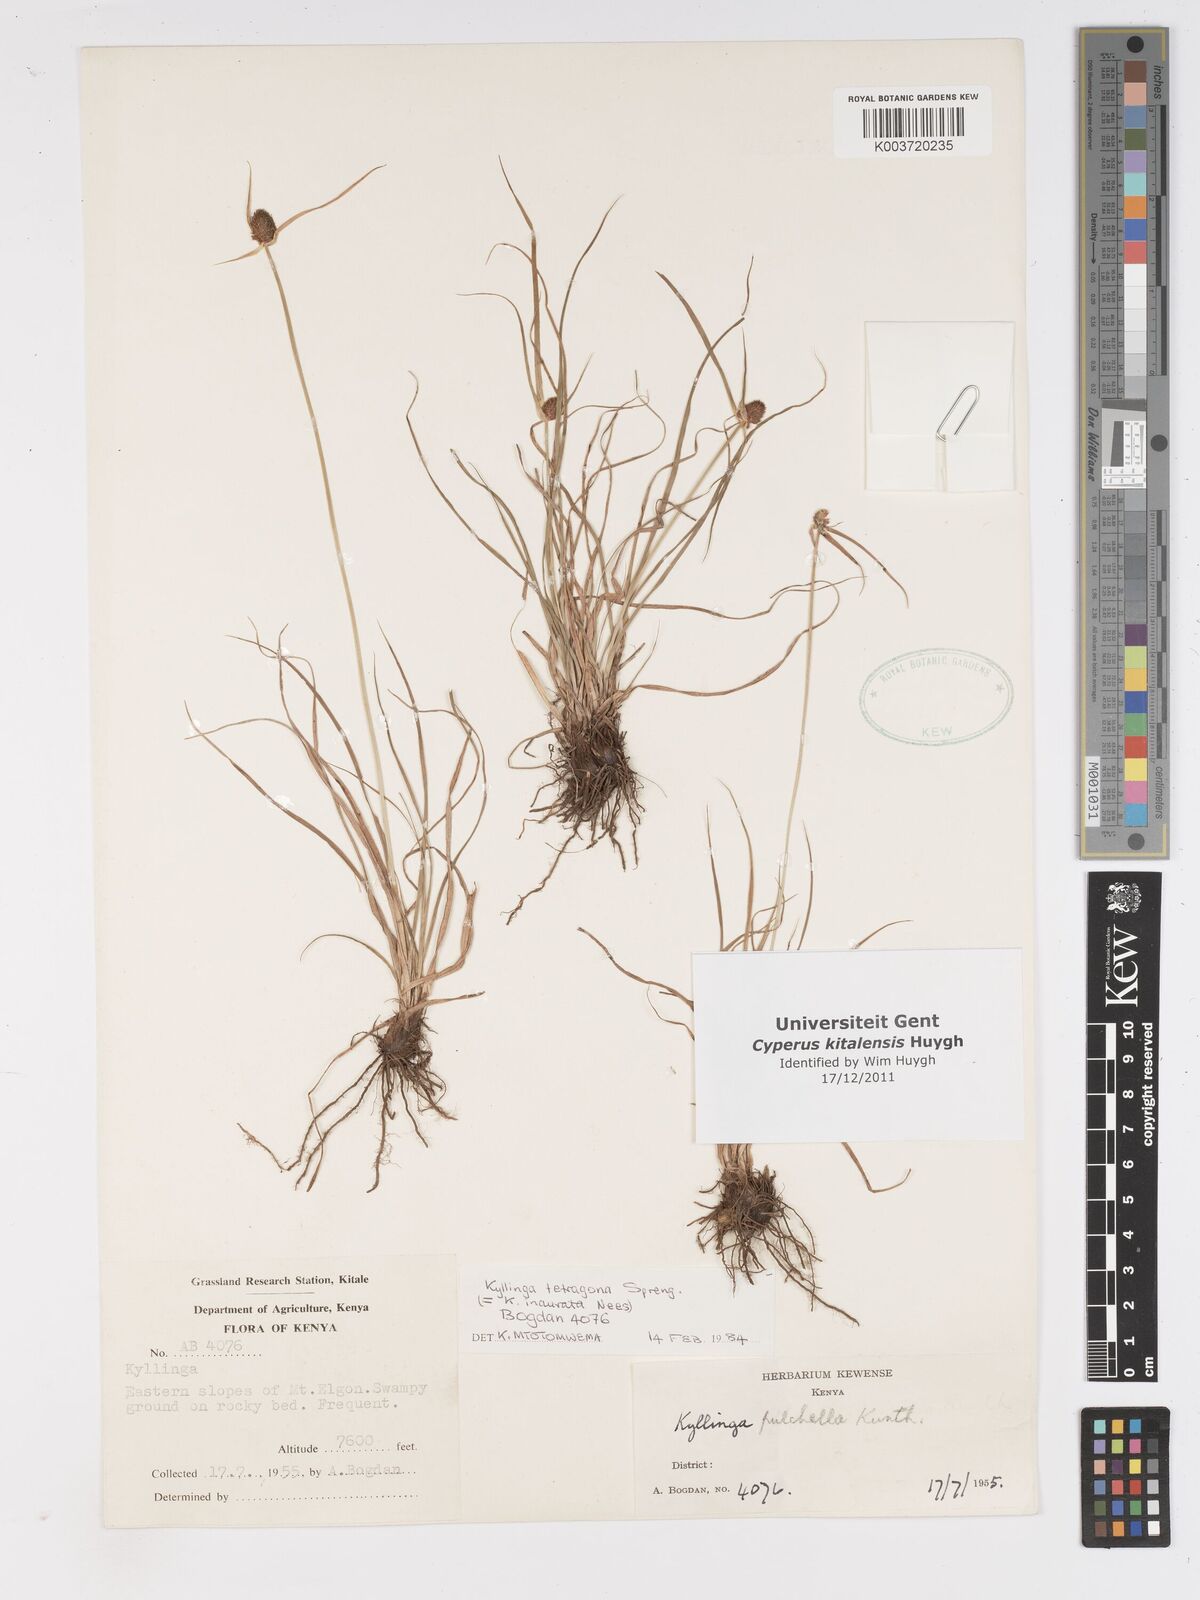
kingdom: Plantae
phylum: Tracheophyta
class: Liliopsida
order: Poales
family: Cyperaceae
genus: Cyperus
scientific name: Cyperus
